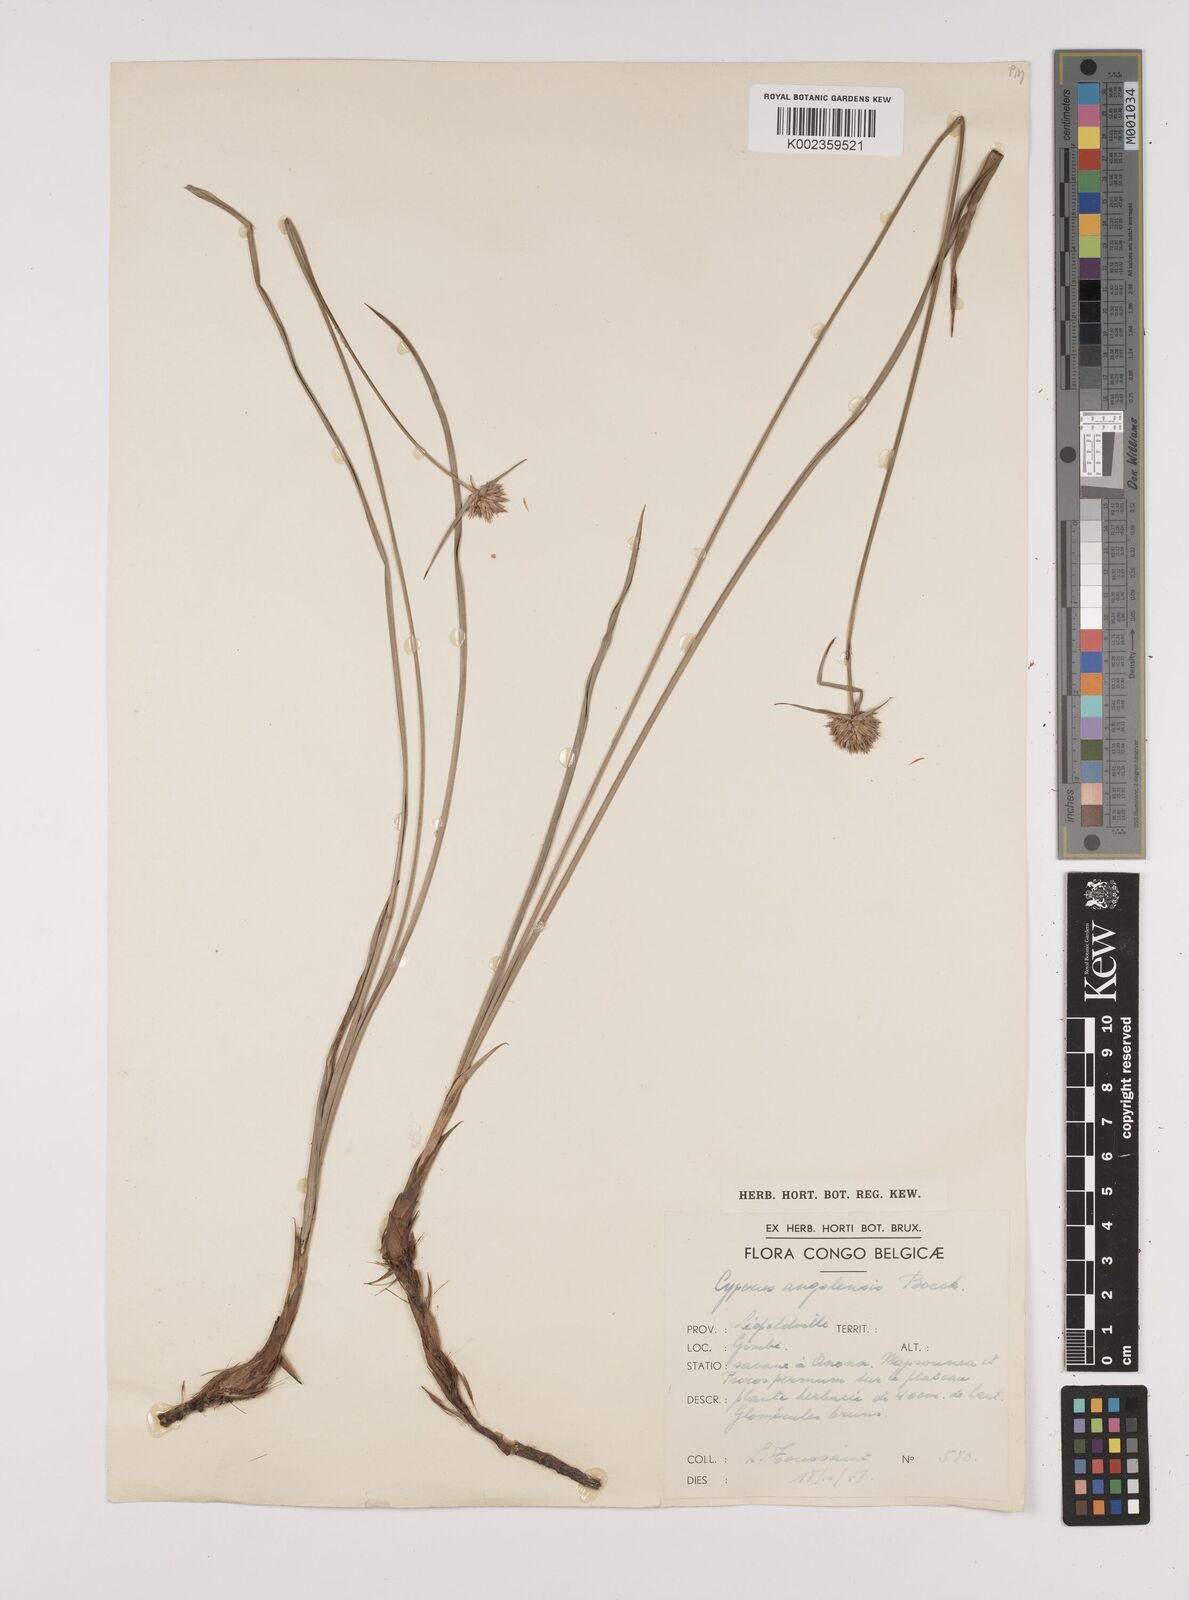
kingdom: Plantae
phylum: Tracheophyta
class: Liliopsida
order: Poales
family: Cyperaceae
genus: Cyperus
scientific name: Cyperus angolensis
